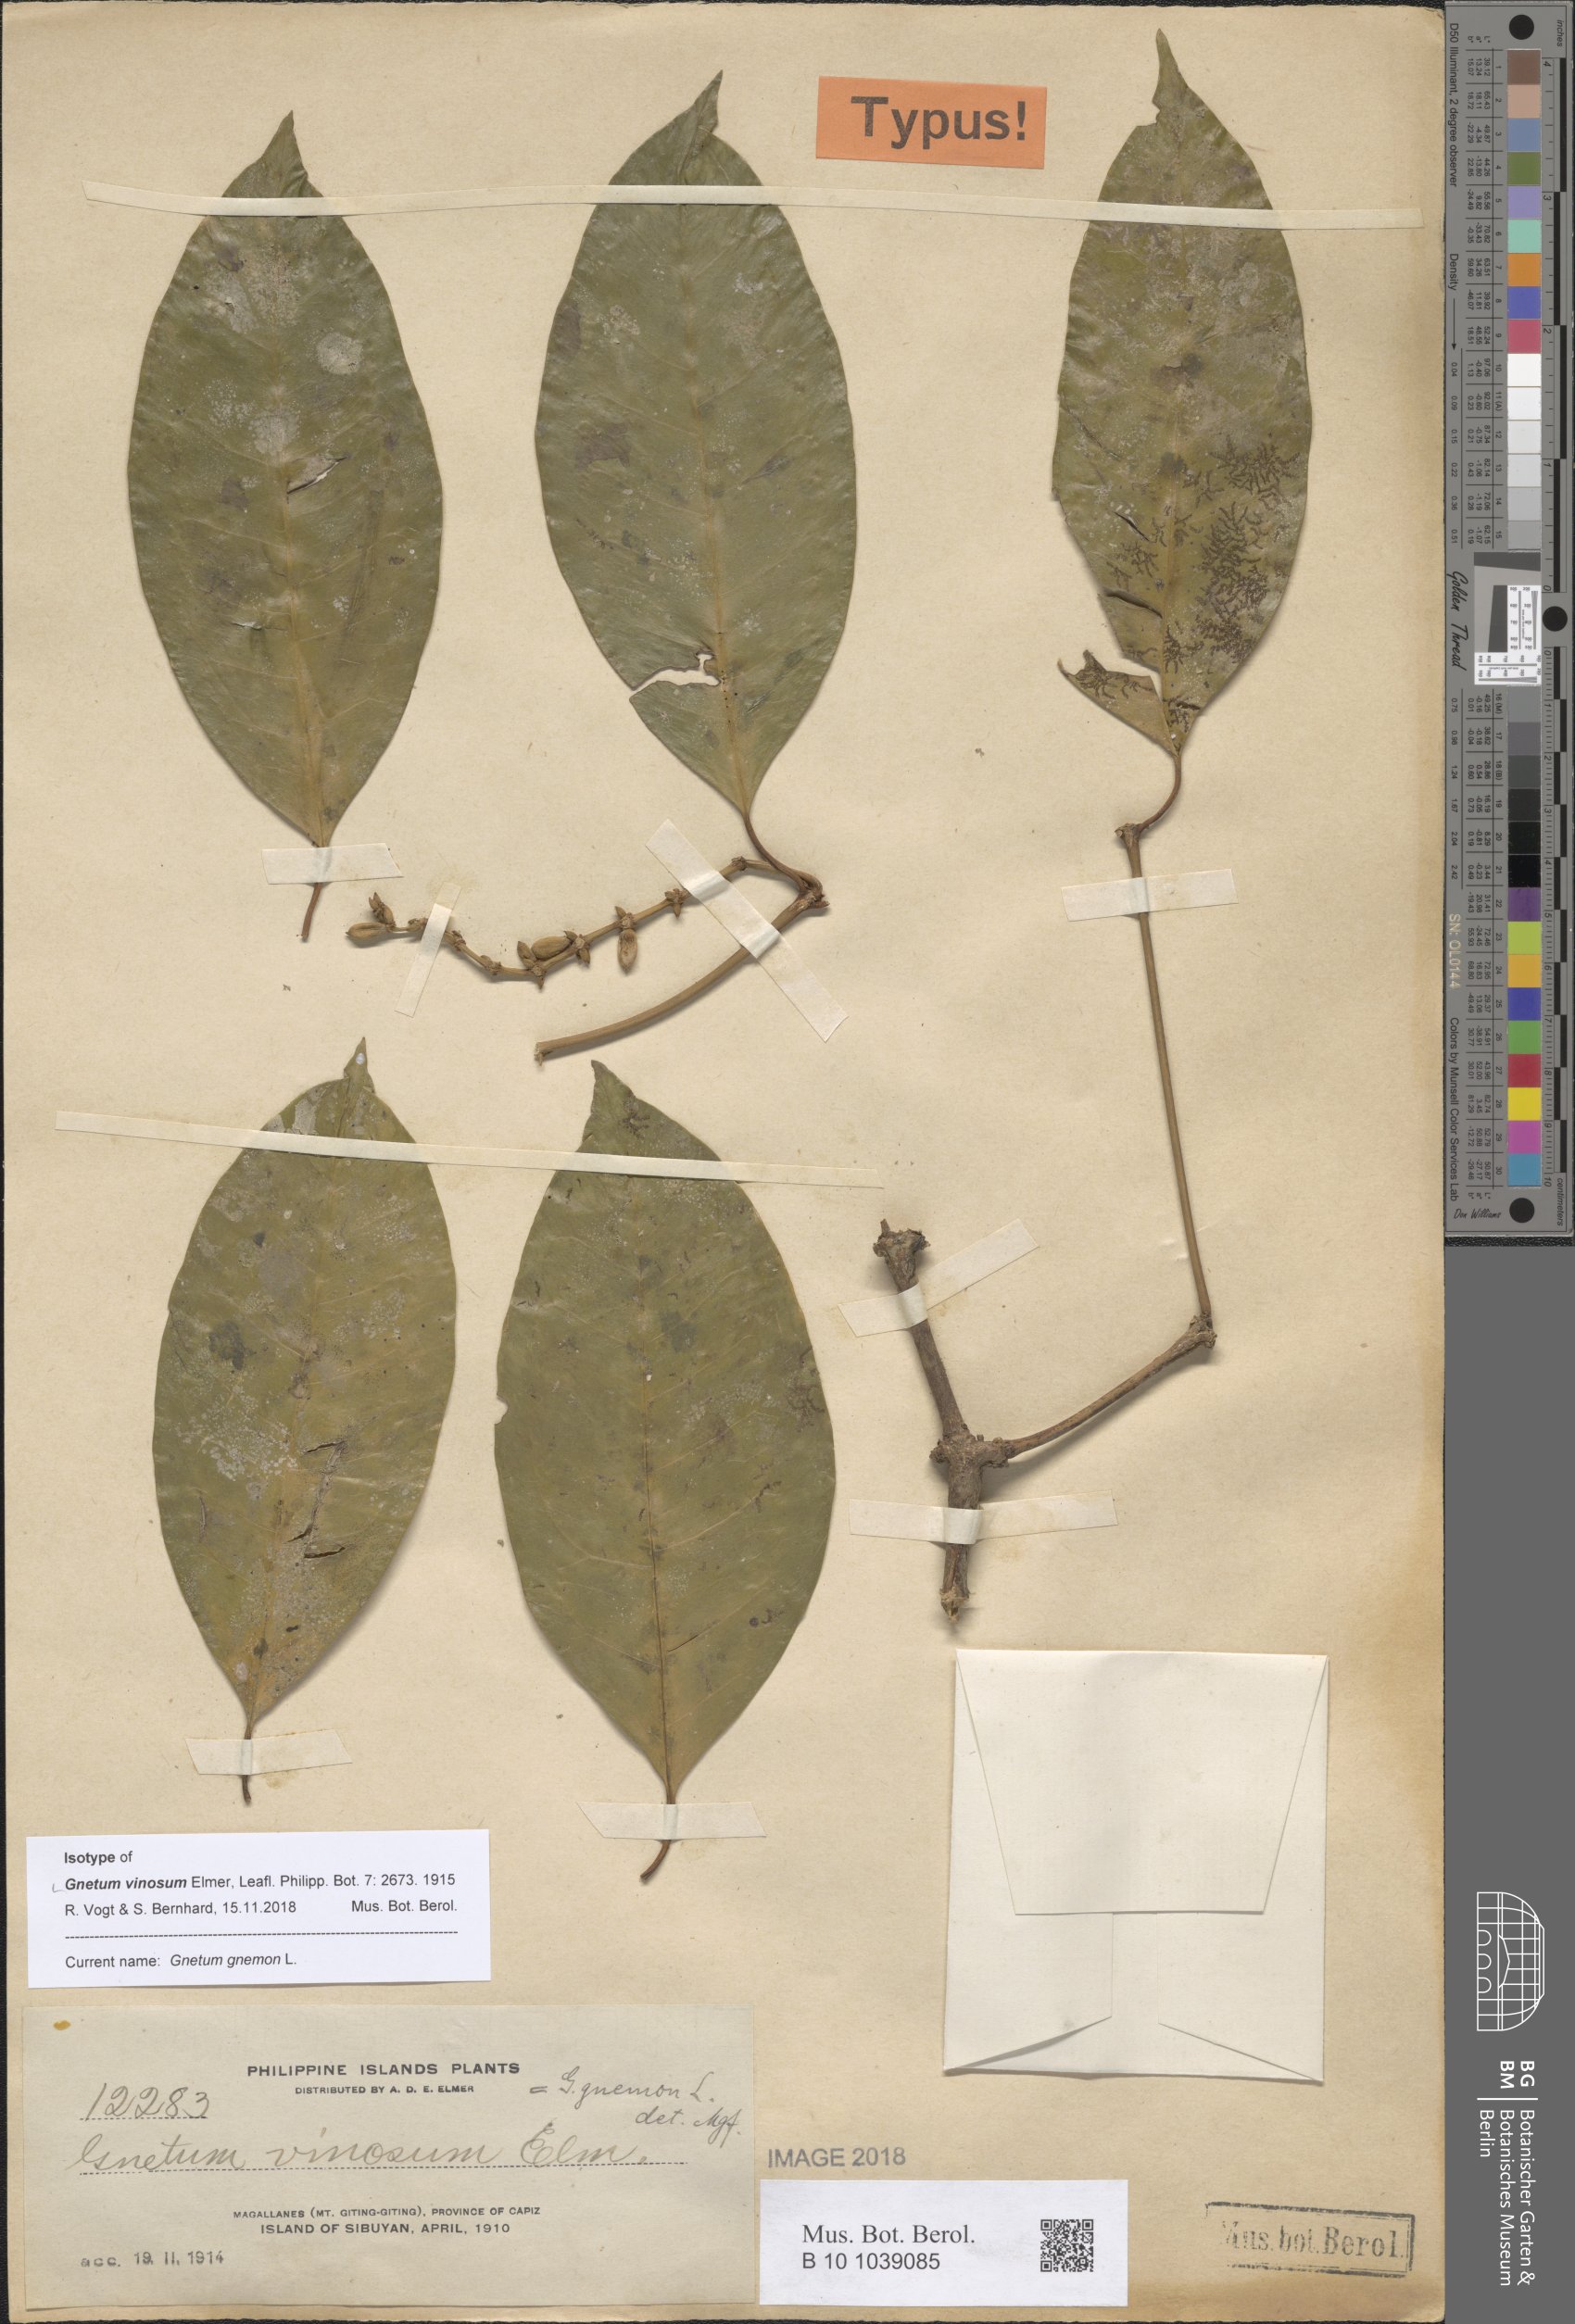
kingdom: Plantae
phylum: Tracheophyta
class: Gnetopsida
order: Gnetales
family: Gnetaceae
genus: Gnetum
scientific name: Gnetum gnemon
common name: Spanish joint-fir
